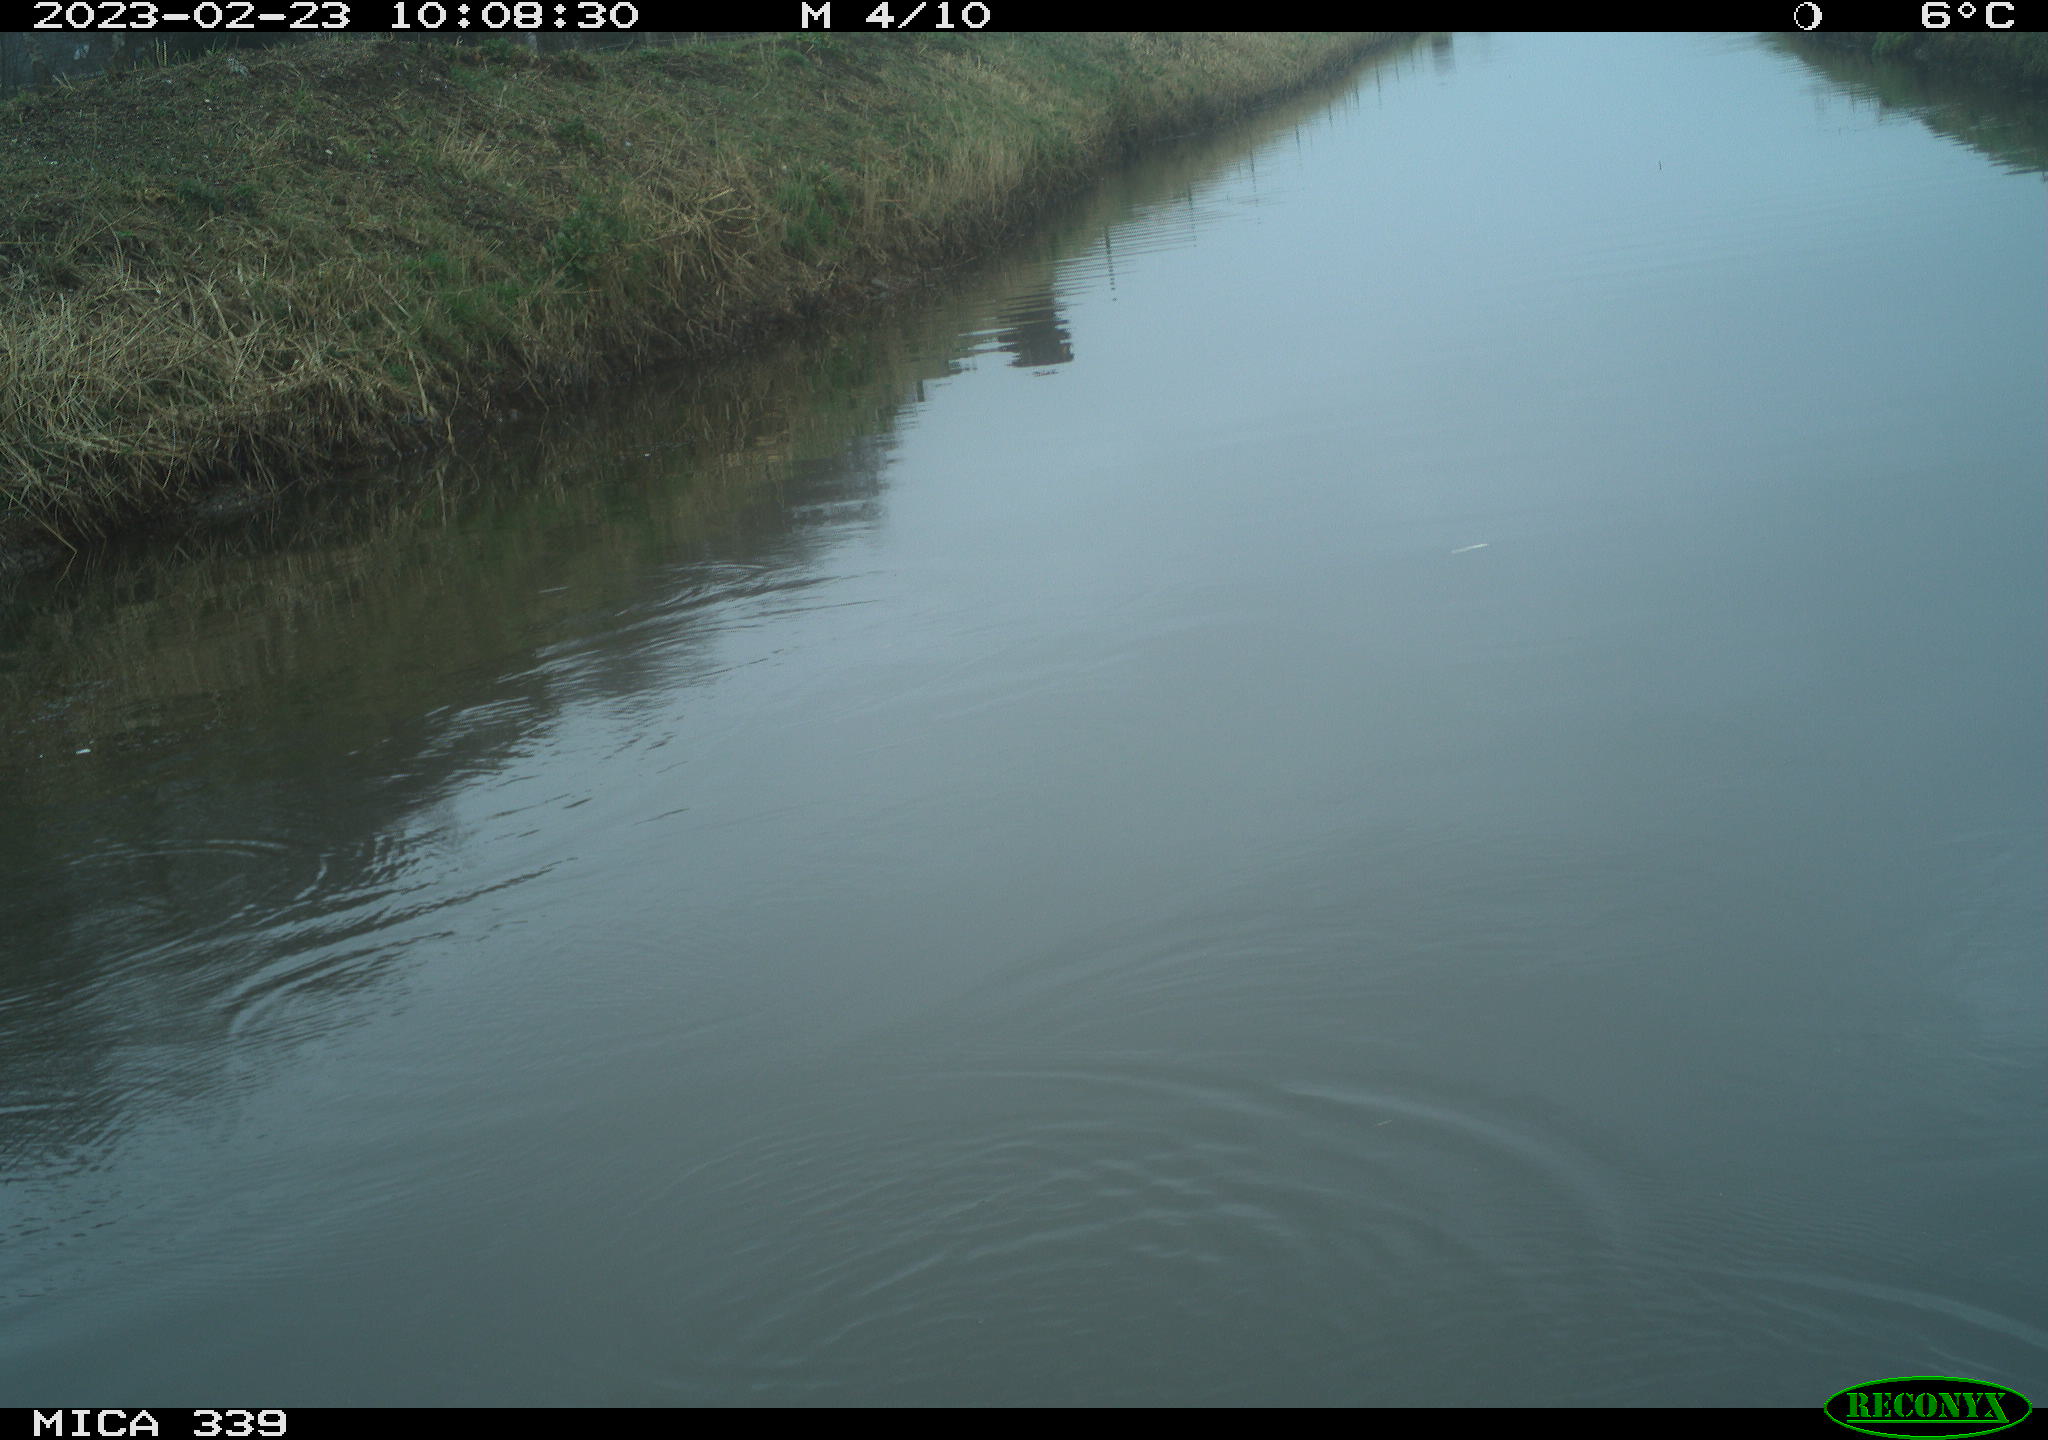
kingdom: Animalia
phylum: Chordata
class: Aves
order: Pelecaniformes
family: Ardeidae
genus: Ardea
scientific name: Ardea cinerea
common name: Grey heron
